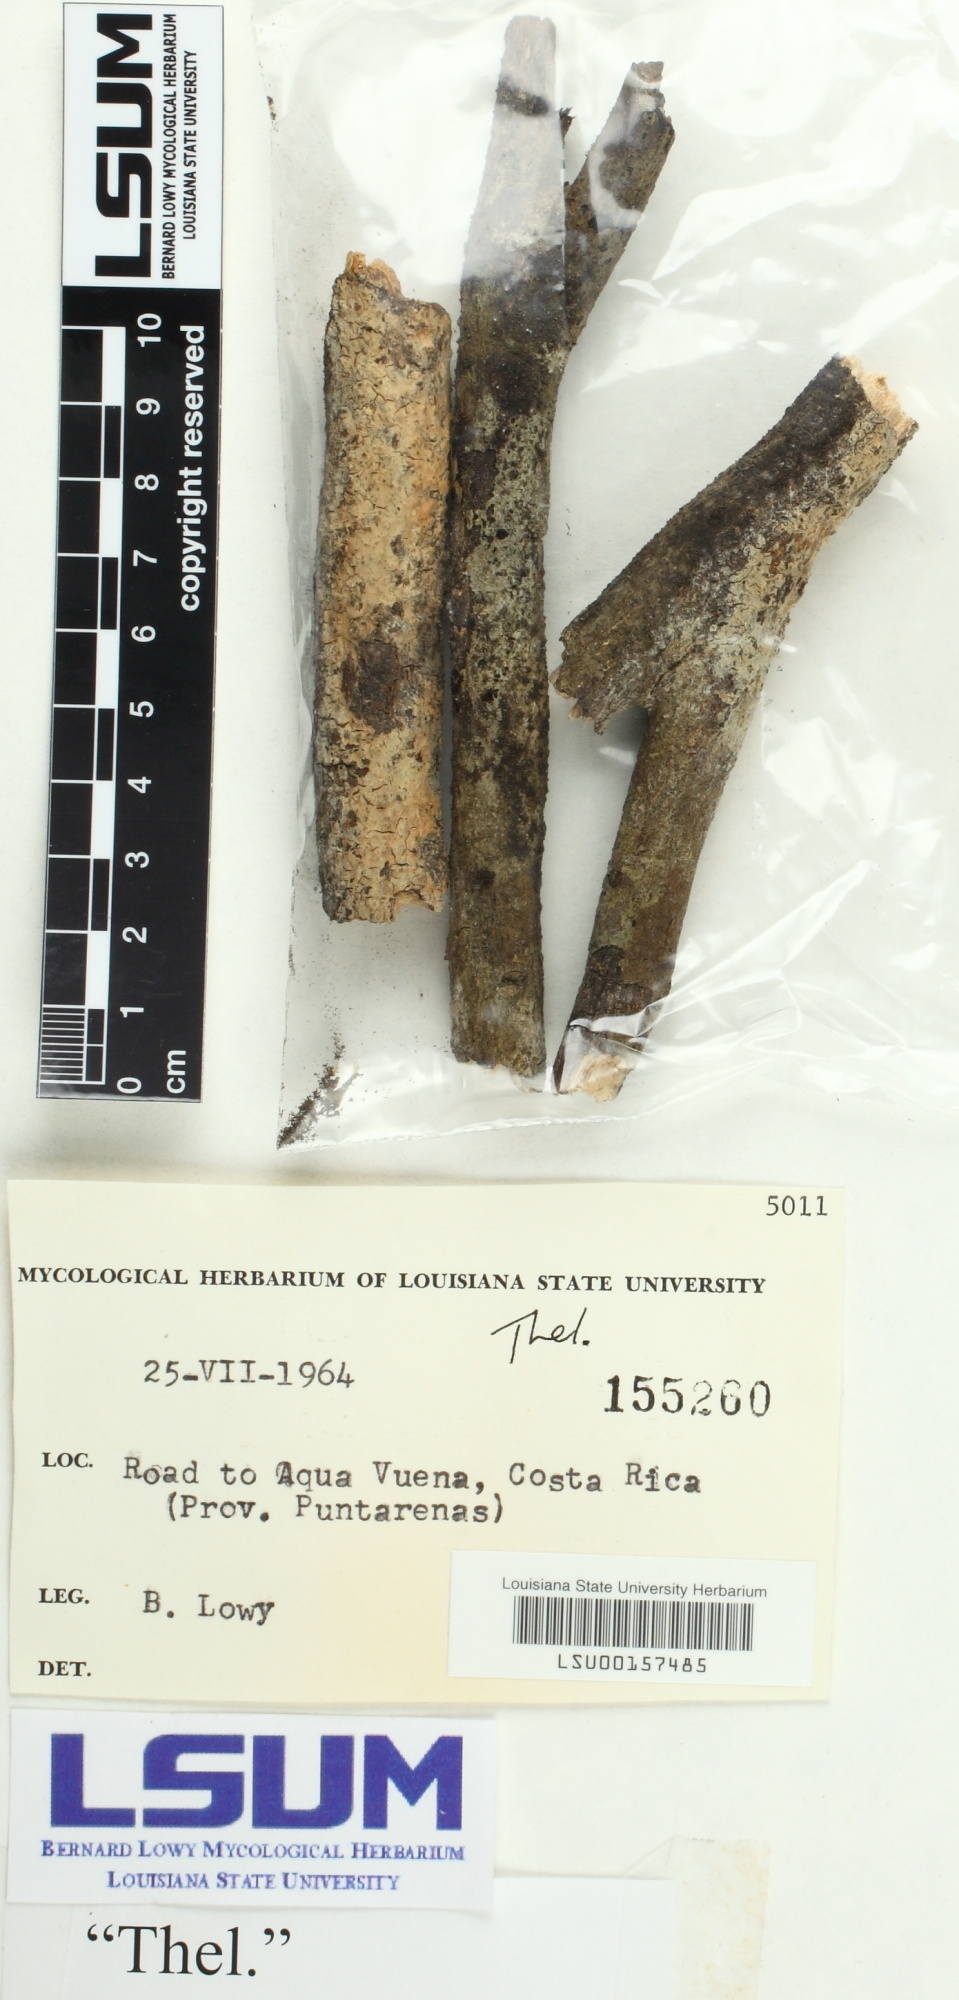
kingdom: Fungi
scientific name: Fungi
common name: Fungi
